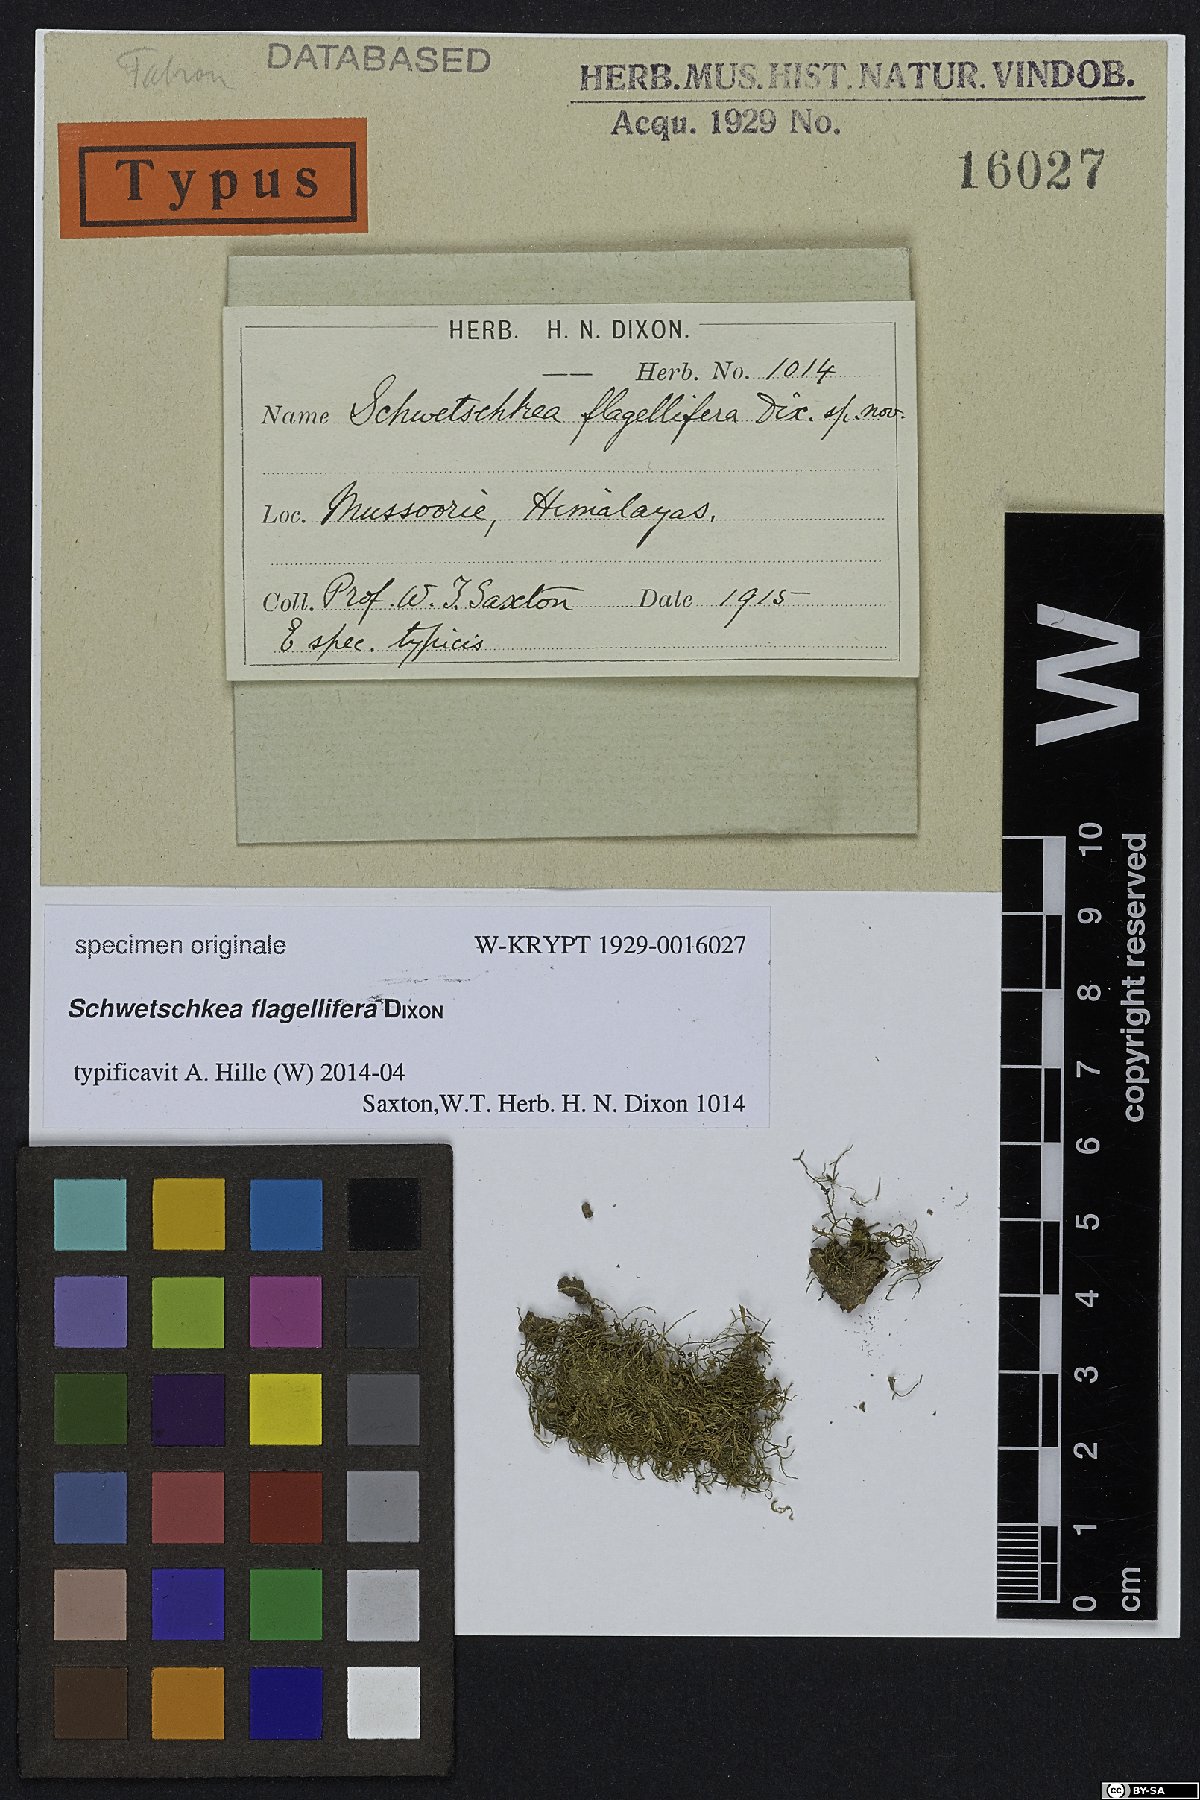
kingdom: Plantae
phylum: Bryophyta
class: Bryopsida
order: Hypnales
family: Leskeaceae
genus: Schwetschkea
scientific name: Schwetschkea
